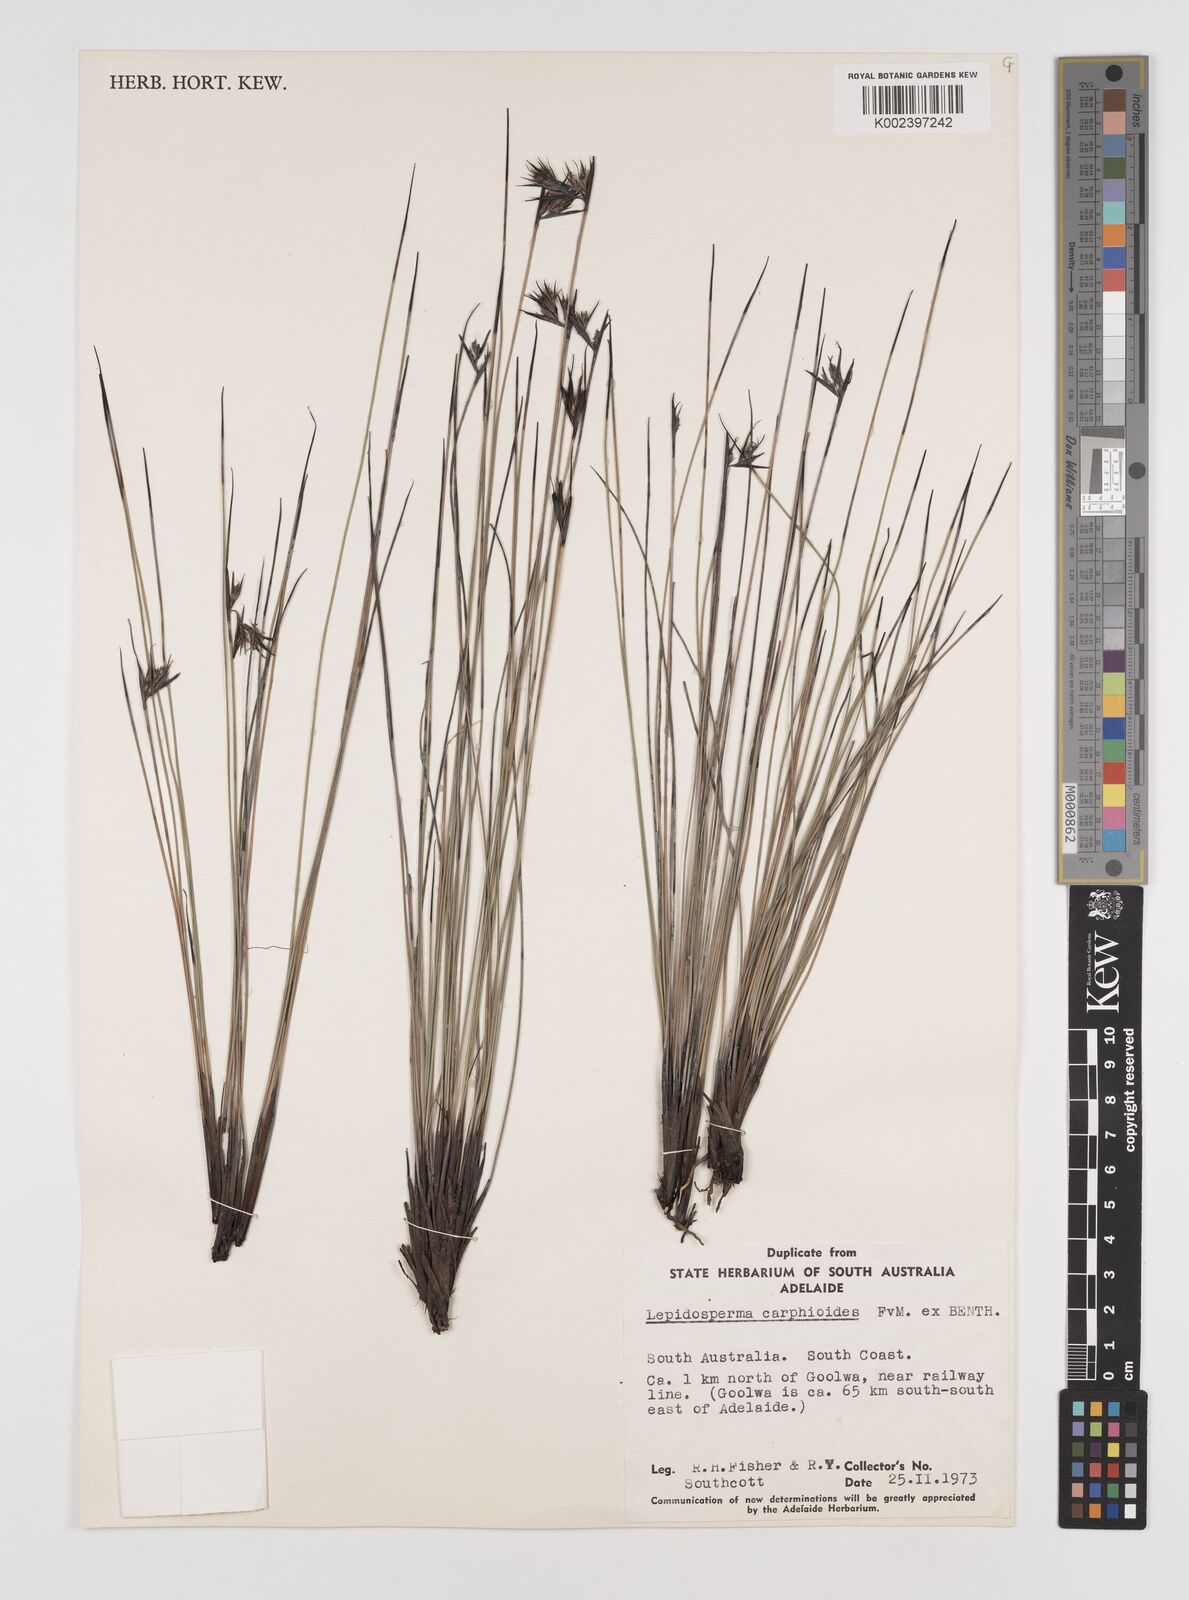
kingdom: Plantae
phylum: Tracheophyta
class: Liliopsida
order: Poales
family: Cyperaceae
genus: Lepidosperma
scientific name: Lepidosperma carphoides
